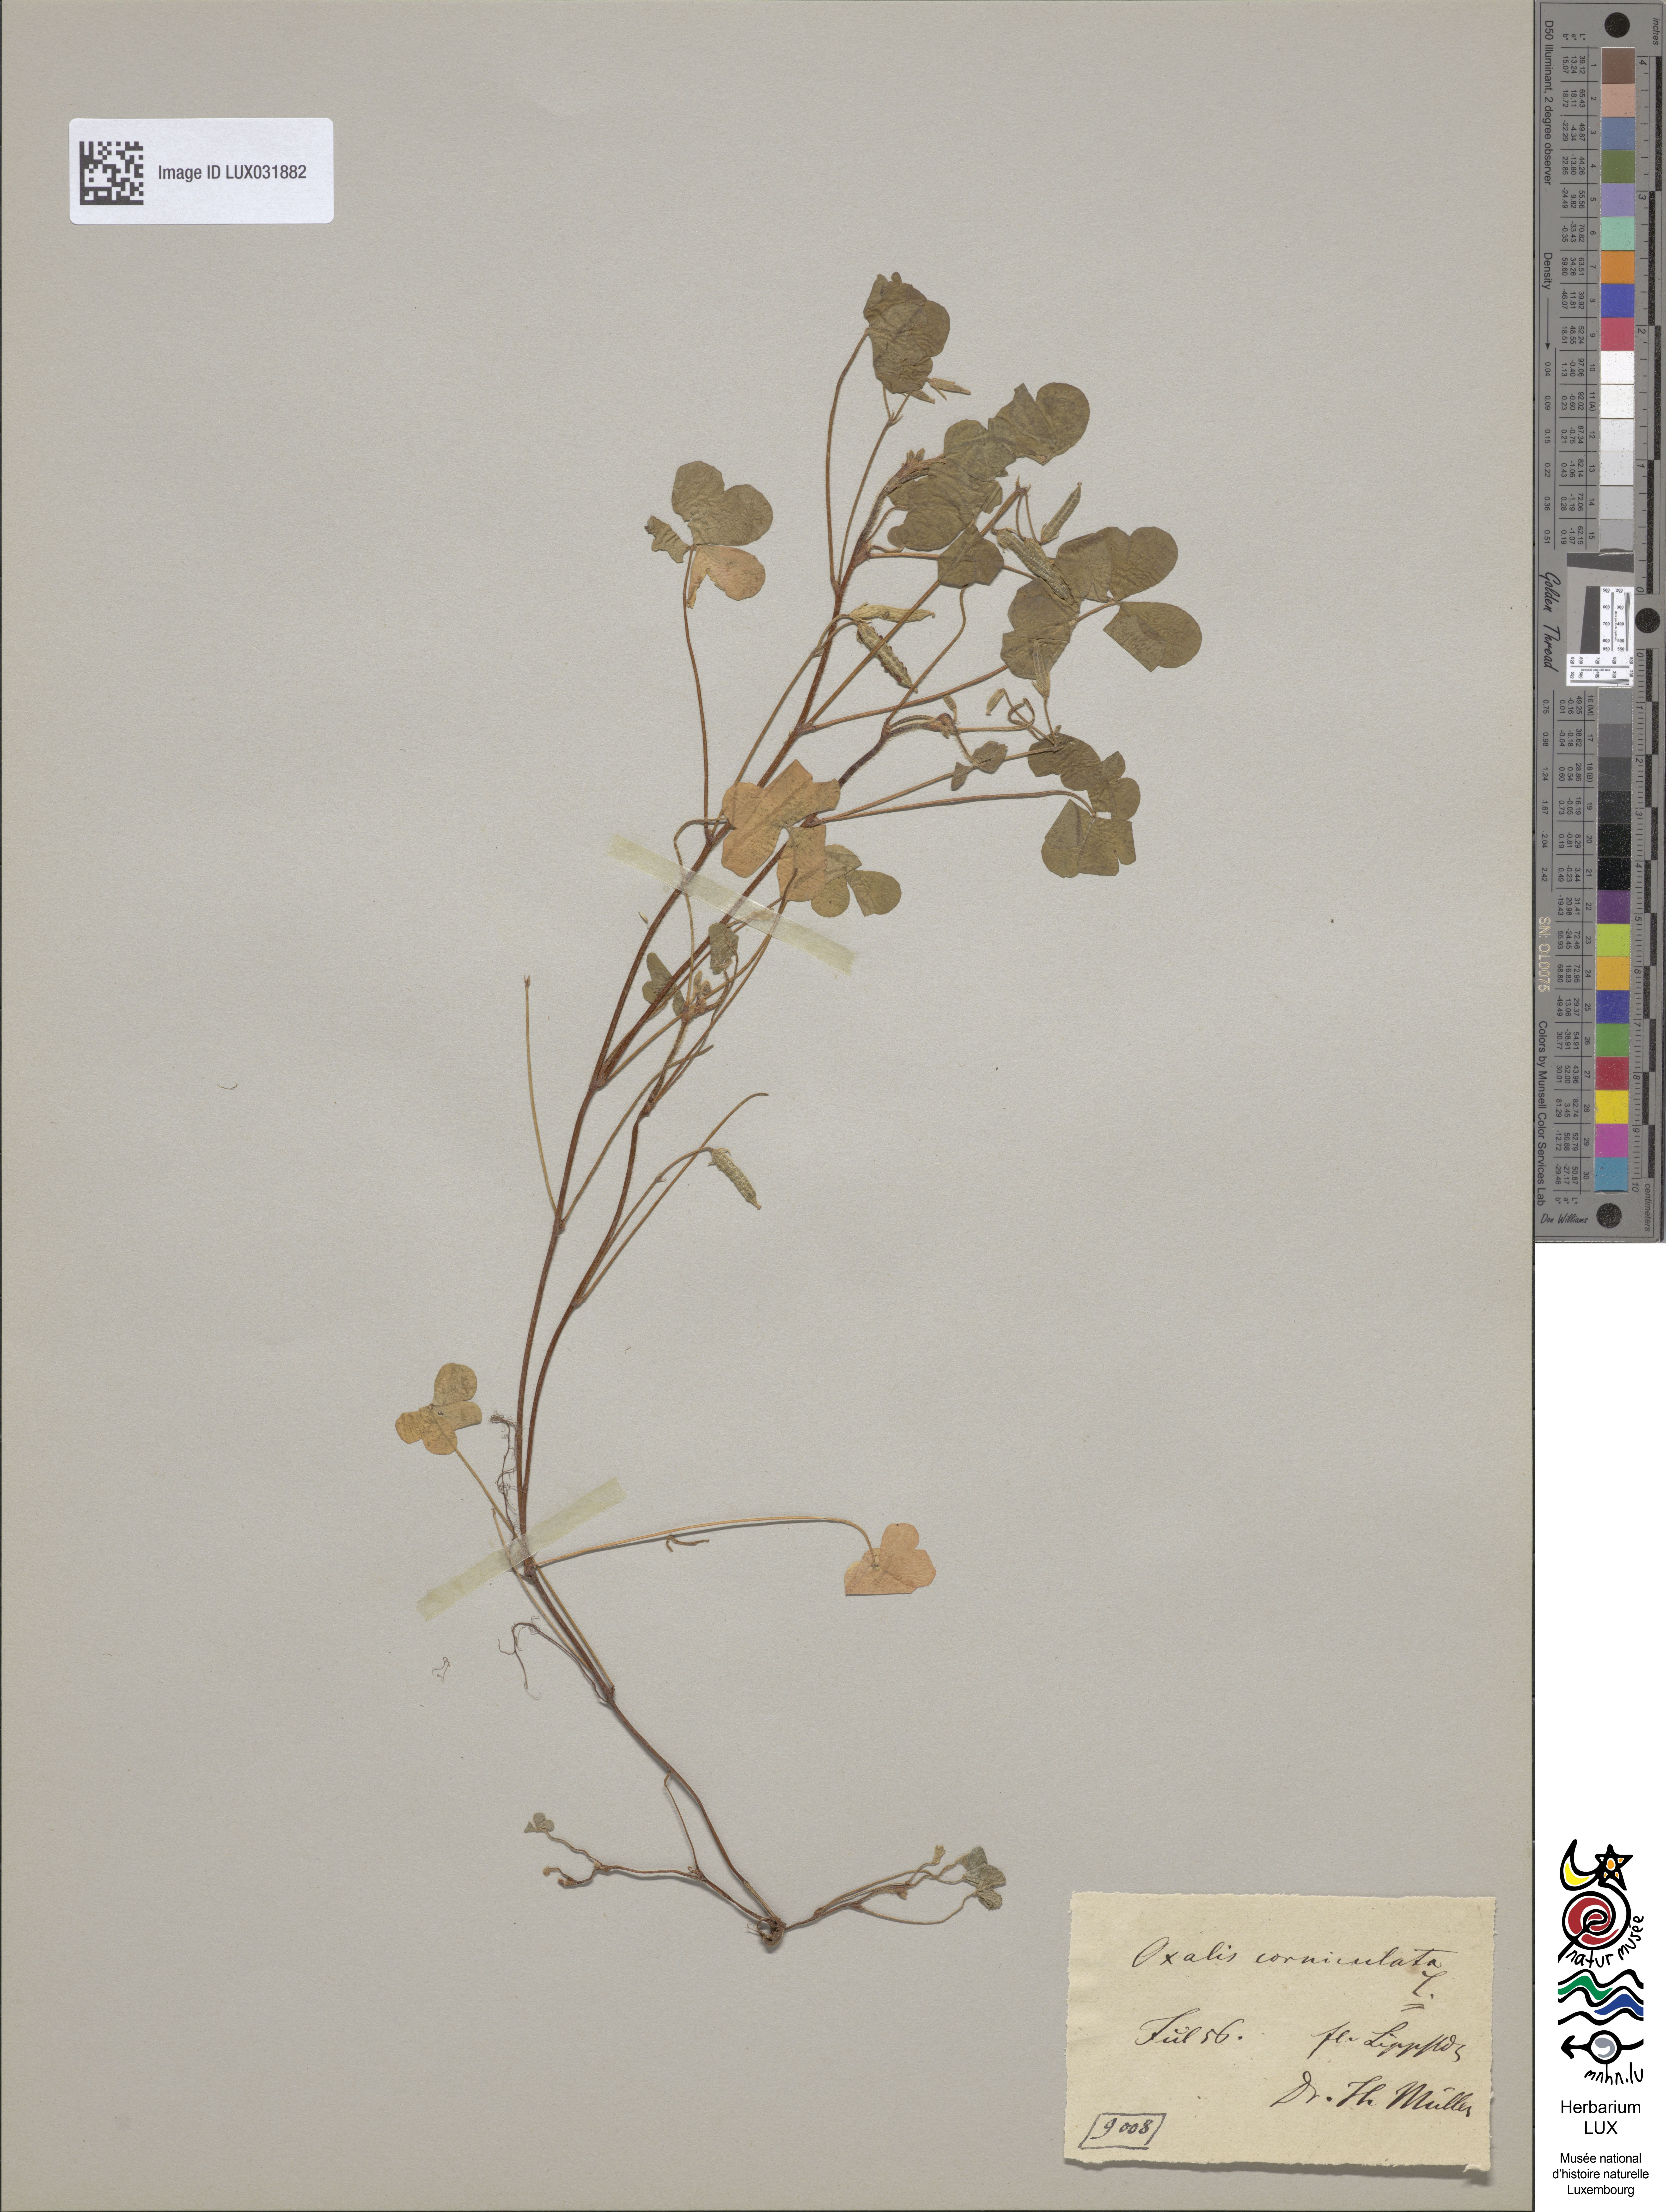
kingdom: Plantae
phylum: Tracheophyta
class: Magnoliopsida
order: Oxalidales
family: Oxalidaceae
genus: Oxalis
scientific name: Oxalis corniculata
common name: Procumbent yellow-sorrel
